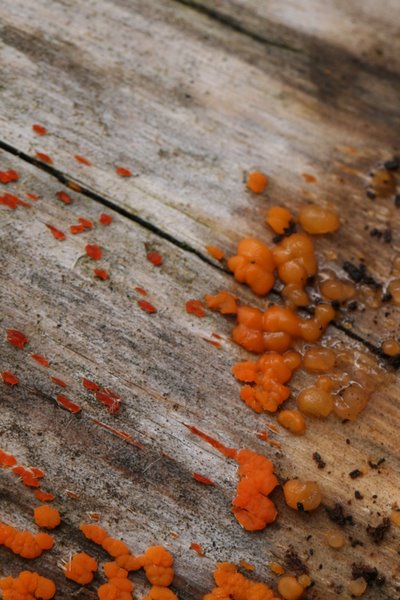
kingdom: Fungi
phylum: Basidiomycota
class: Dacrymycetes
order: Dacrymycetales
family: Dacrymycetaceae
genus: Dacrymyces
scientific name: Dacrymyces stillatus
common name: almindelig tåresvamp
